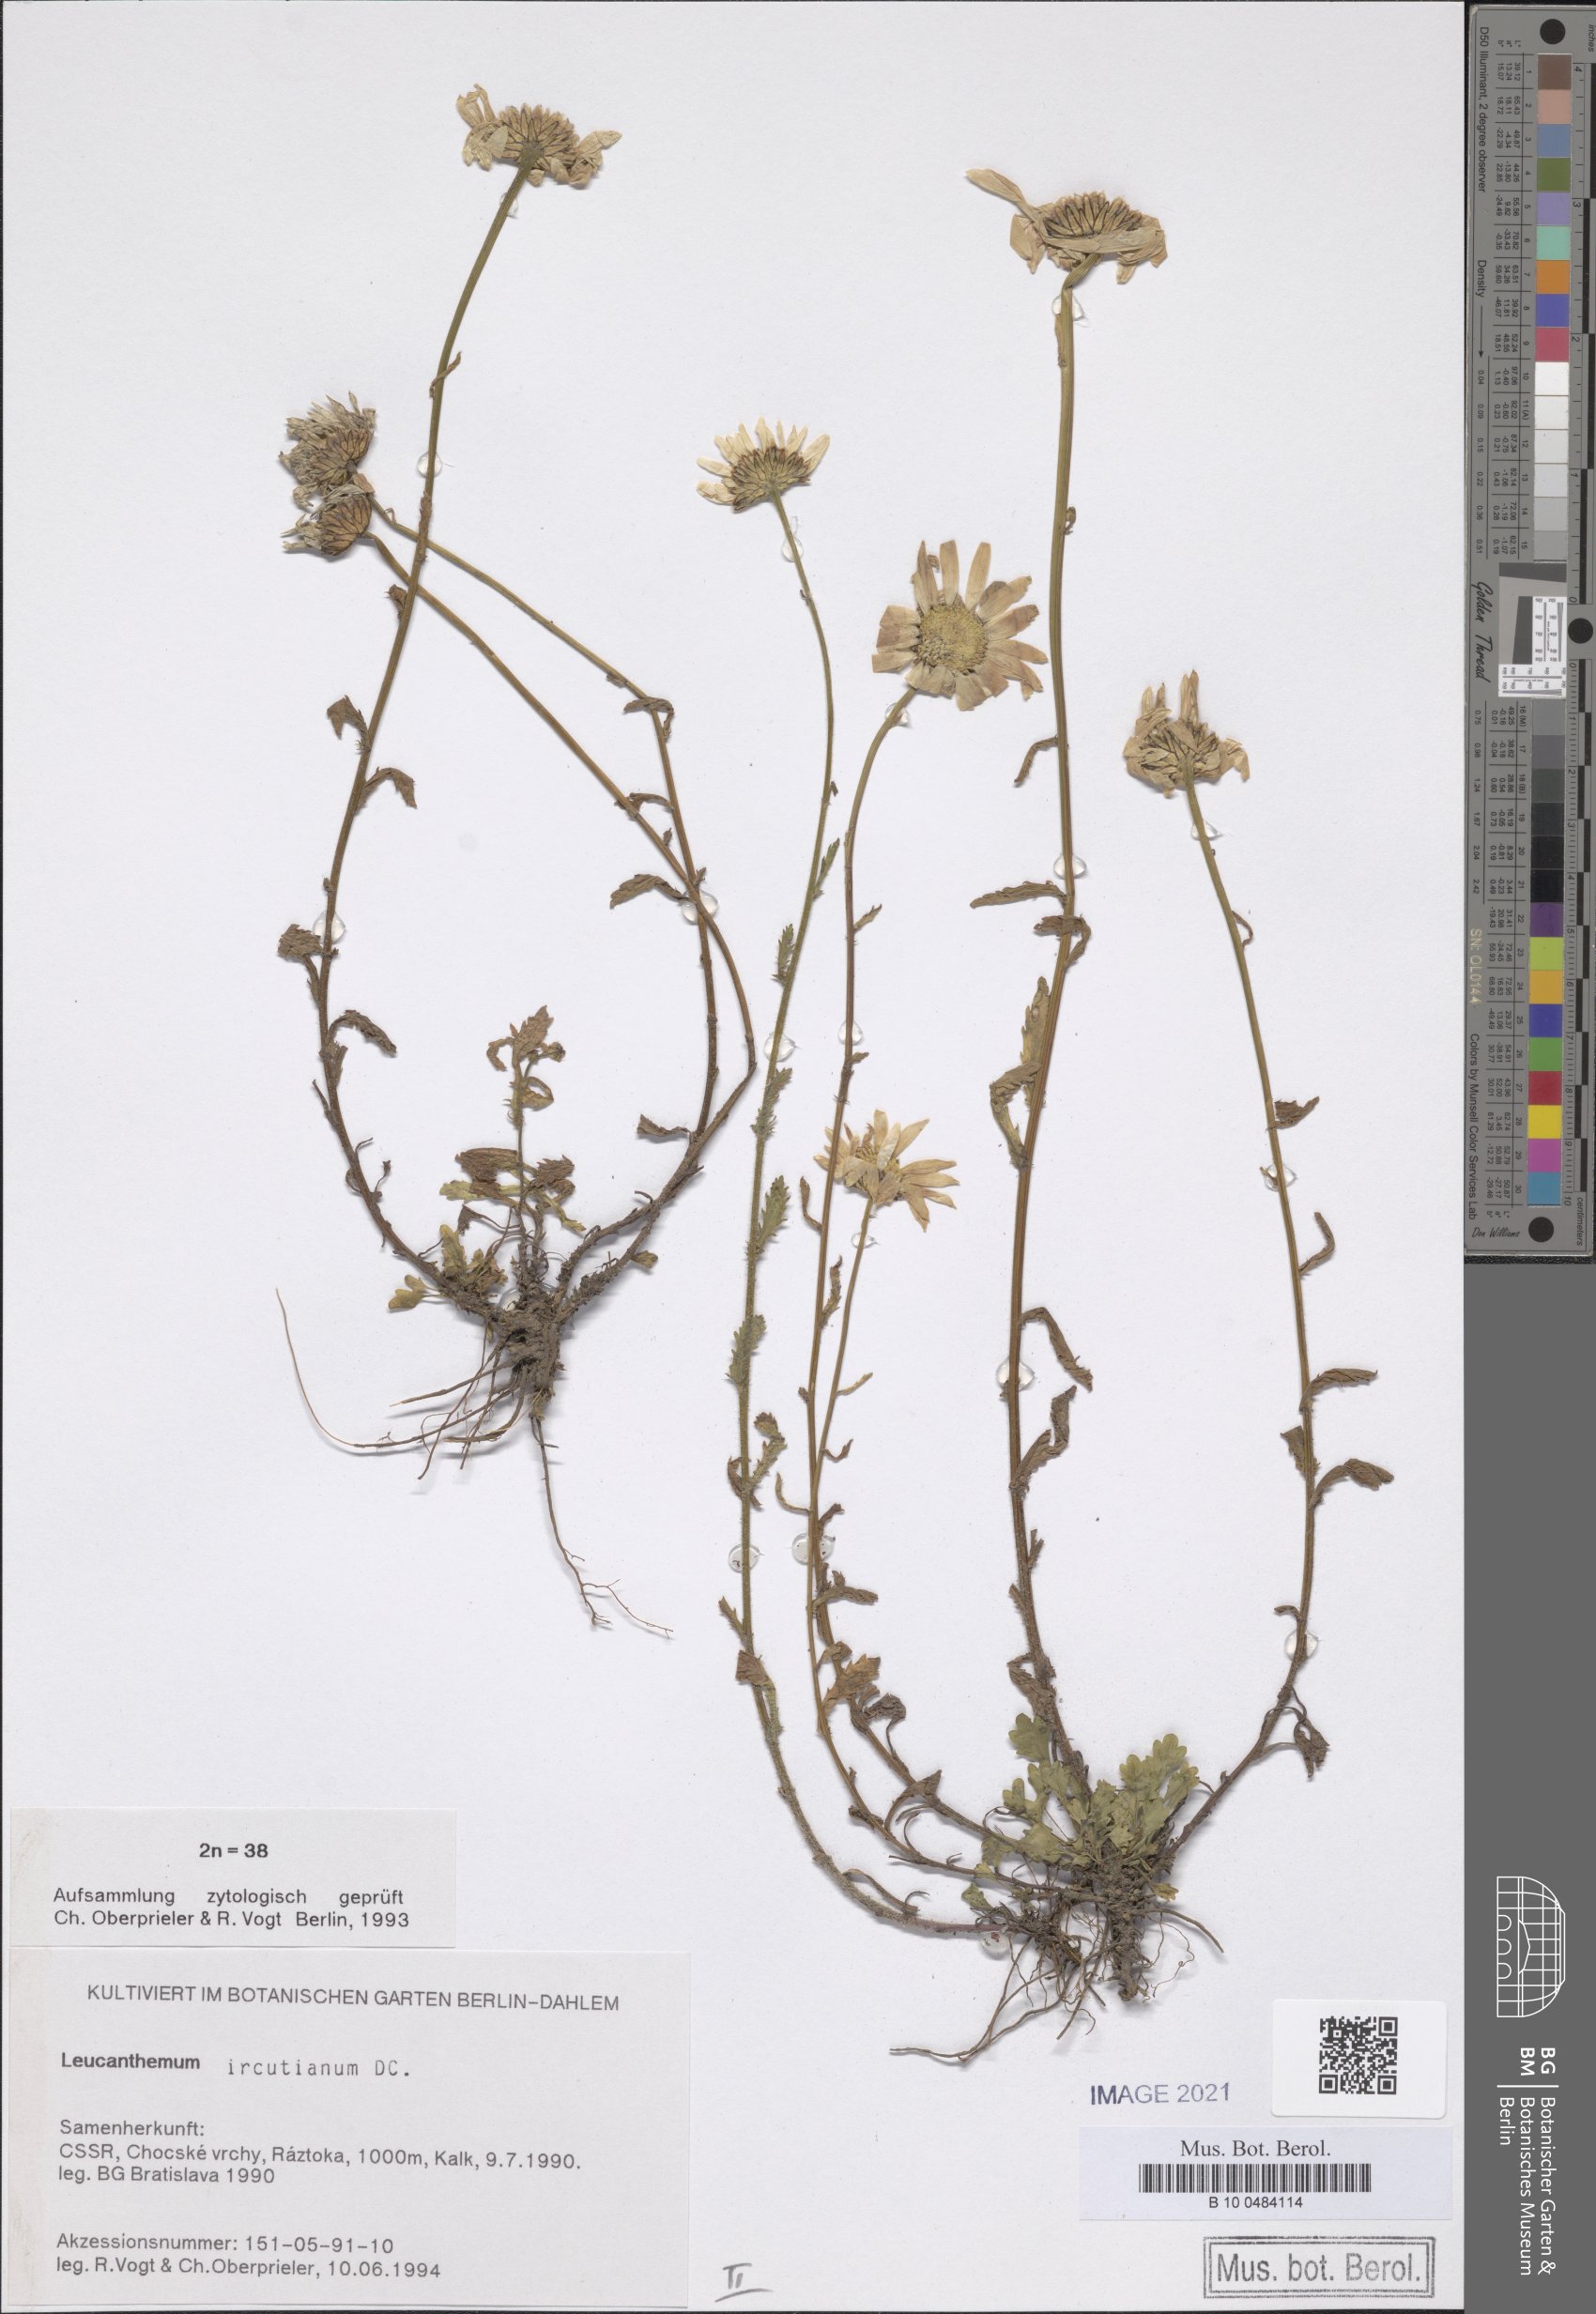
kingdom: Plantae
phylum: Tracheophyta
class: Magnoliopsida
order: Asterales
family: Asteraceae
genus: Leucanthemum
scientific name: Leucanthemum ircutianum
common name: Daisy
